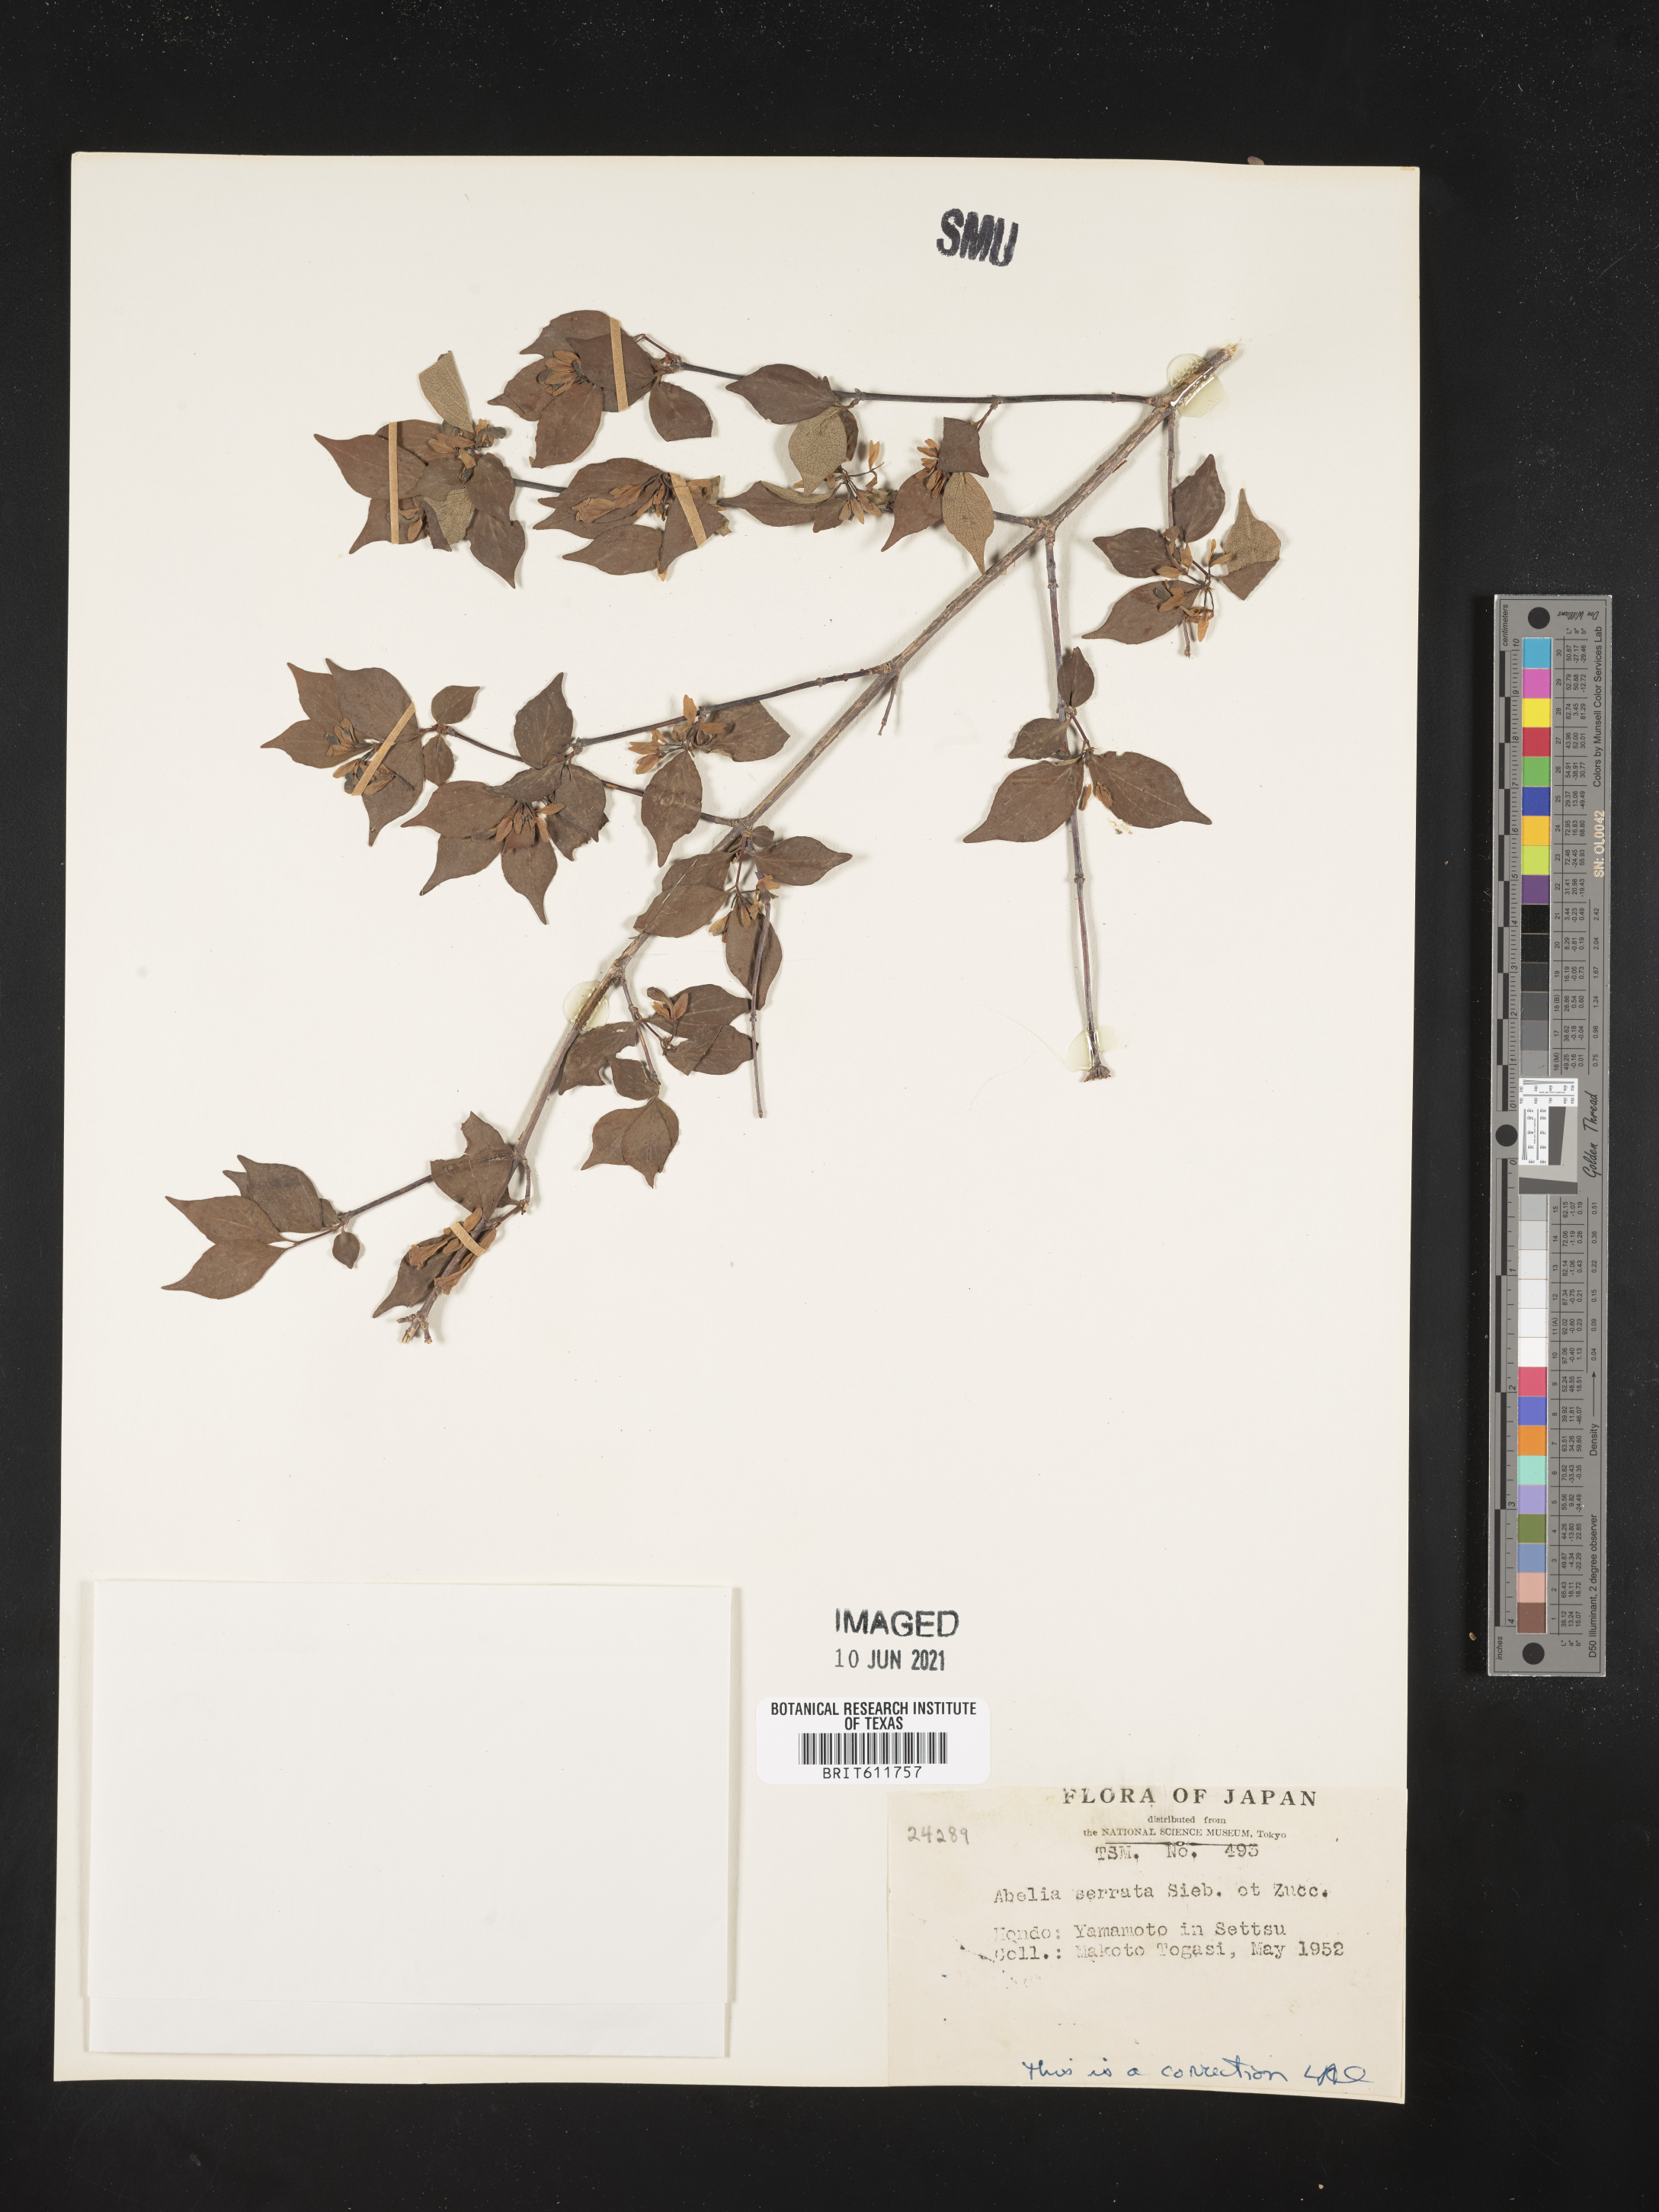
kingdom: Plantae
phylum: Tracheophyta
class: Magnoliopsida
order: Dipsacales
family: Caprifoliaceae
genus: Diabelia
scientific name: Diabelia serrata
